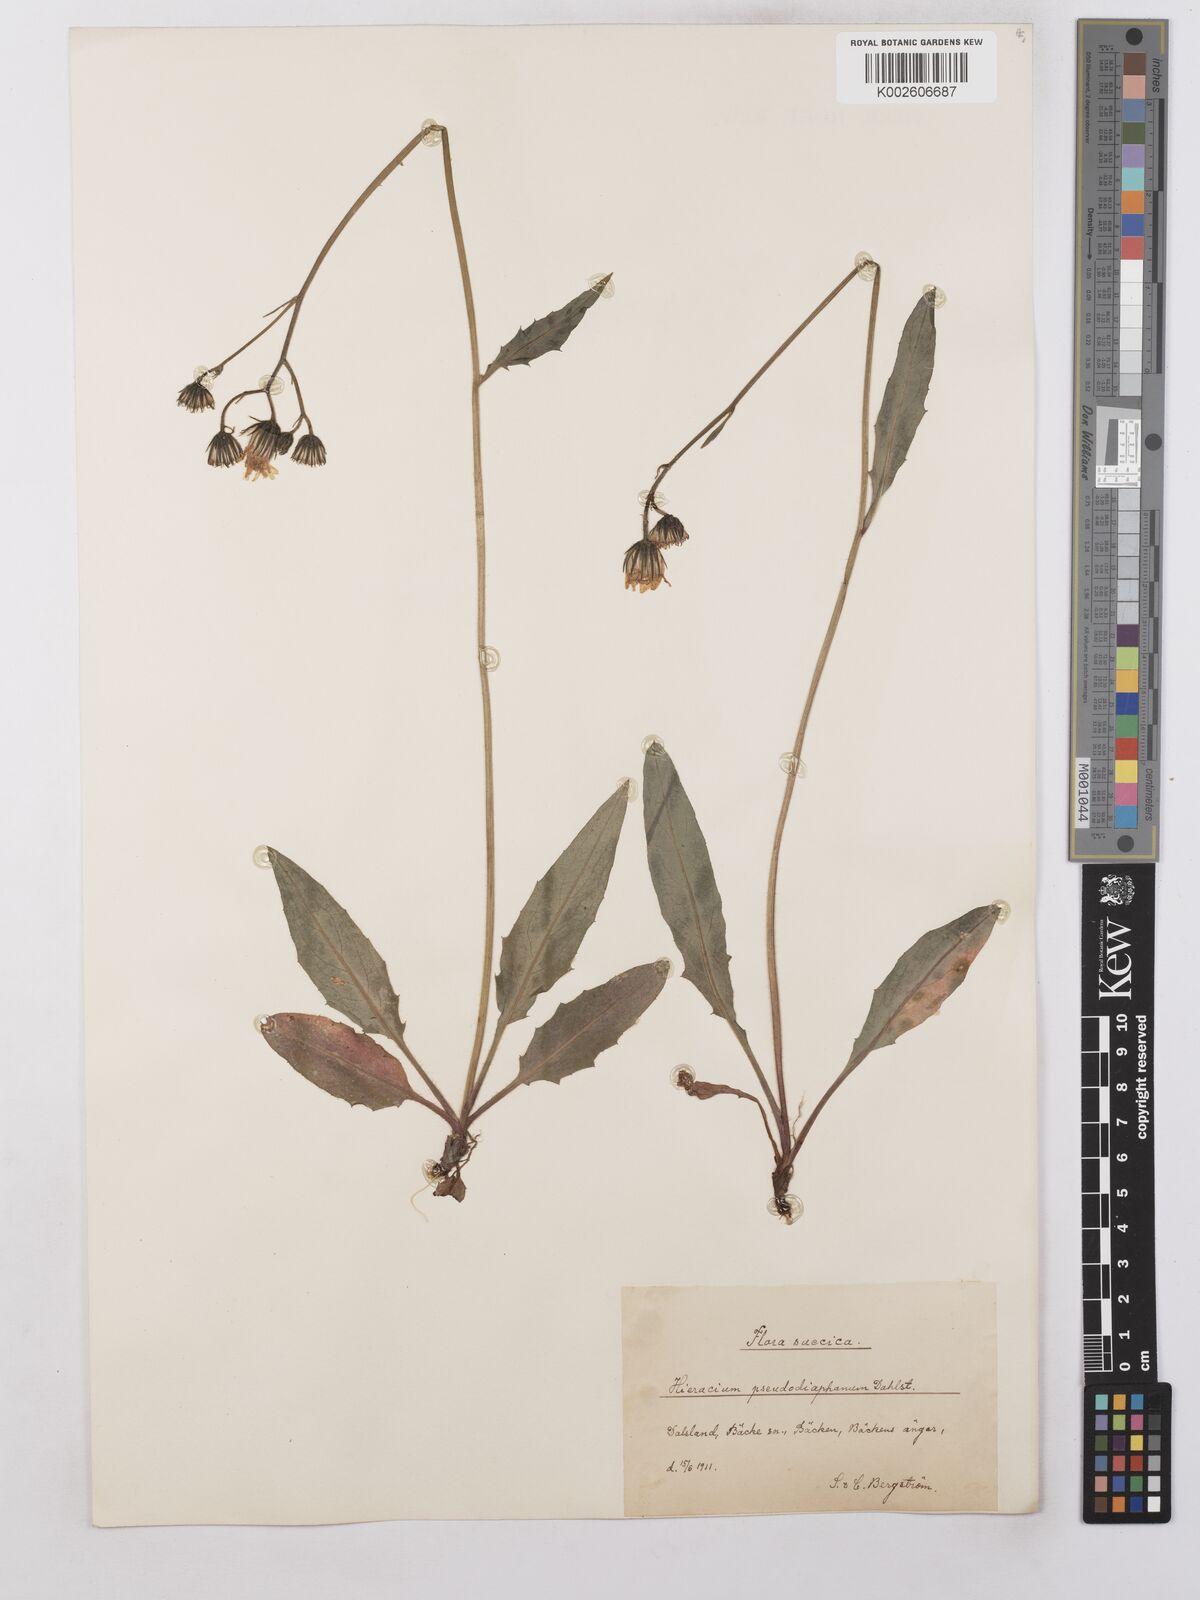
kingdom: Plantae
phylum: Tracheophyta
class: Magnoliopsida
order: Asterales
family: Asteraceae
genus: Hieracium
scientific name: Hieracium lachenalii
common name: Common hawkweed
